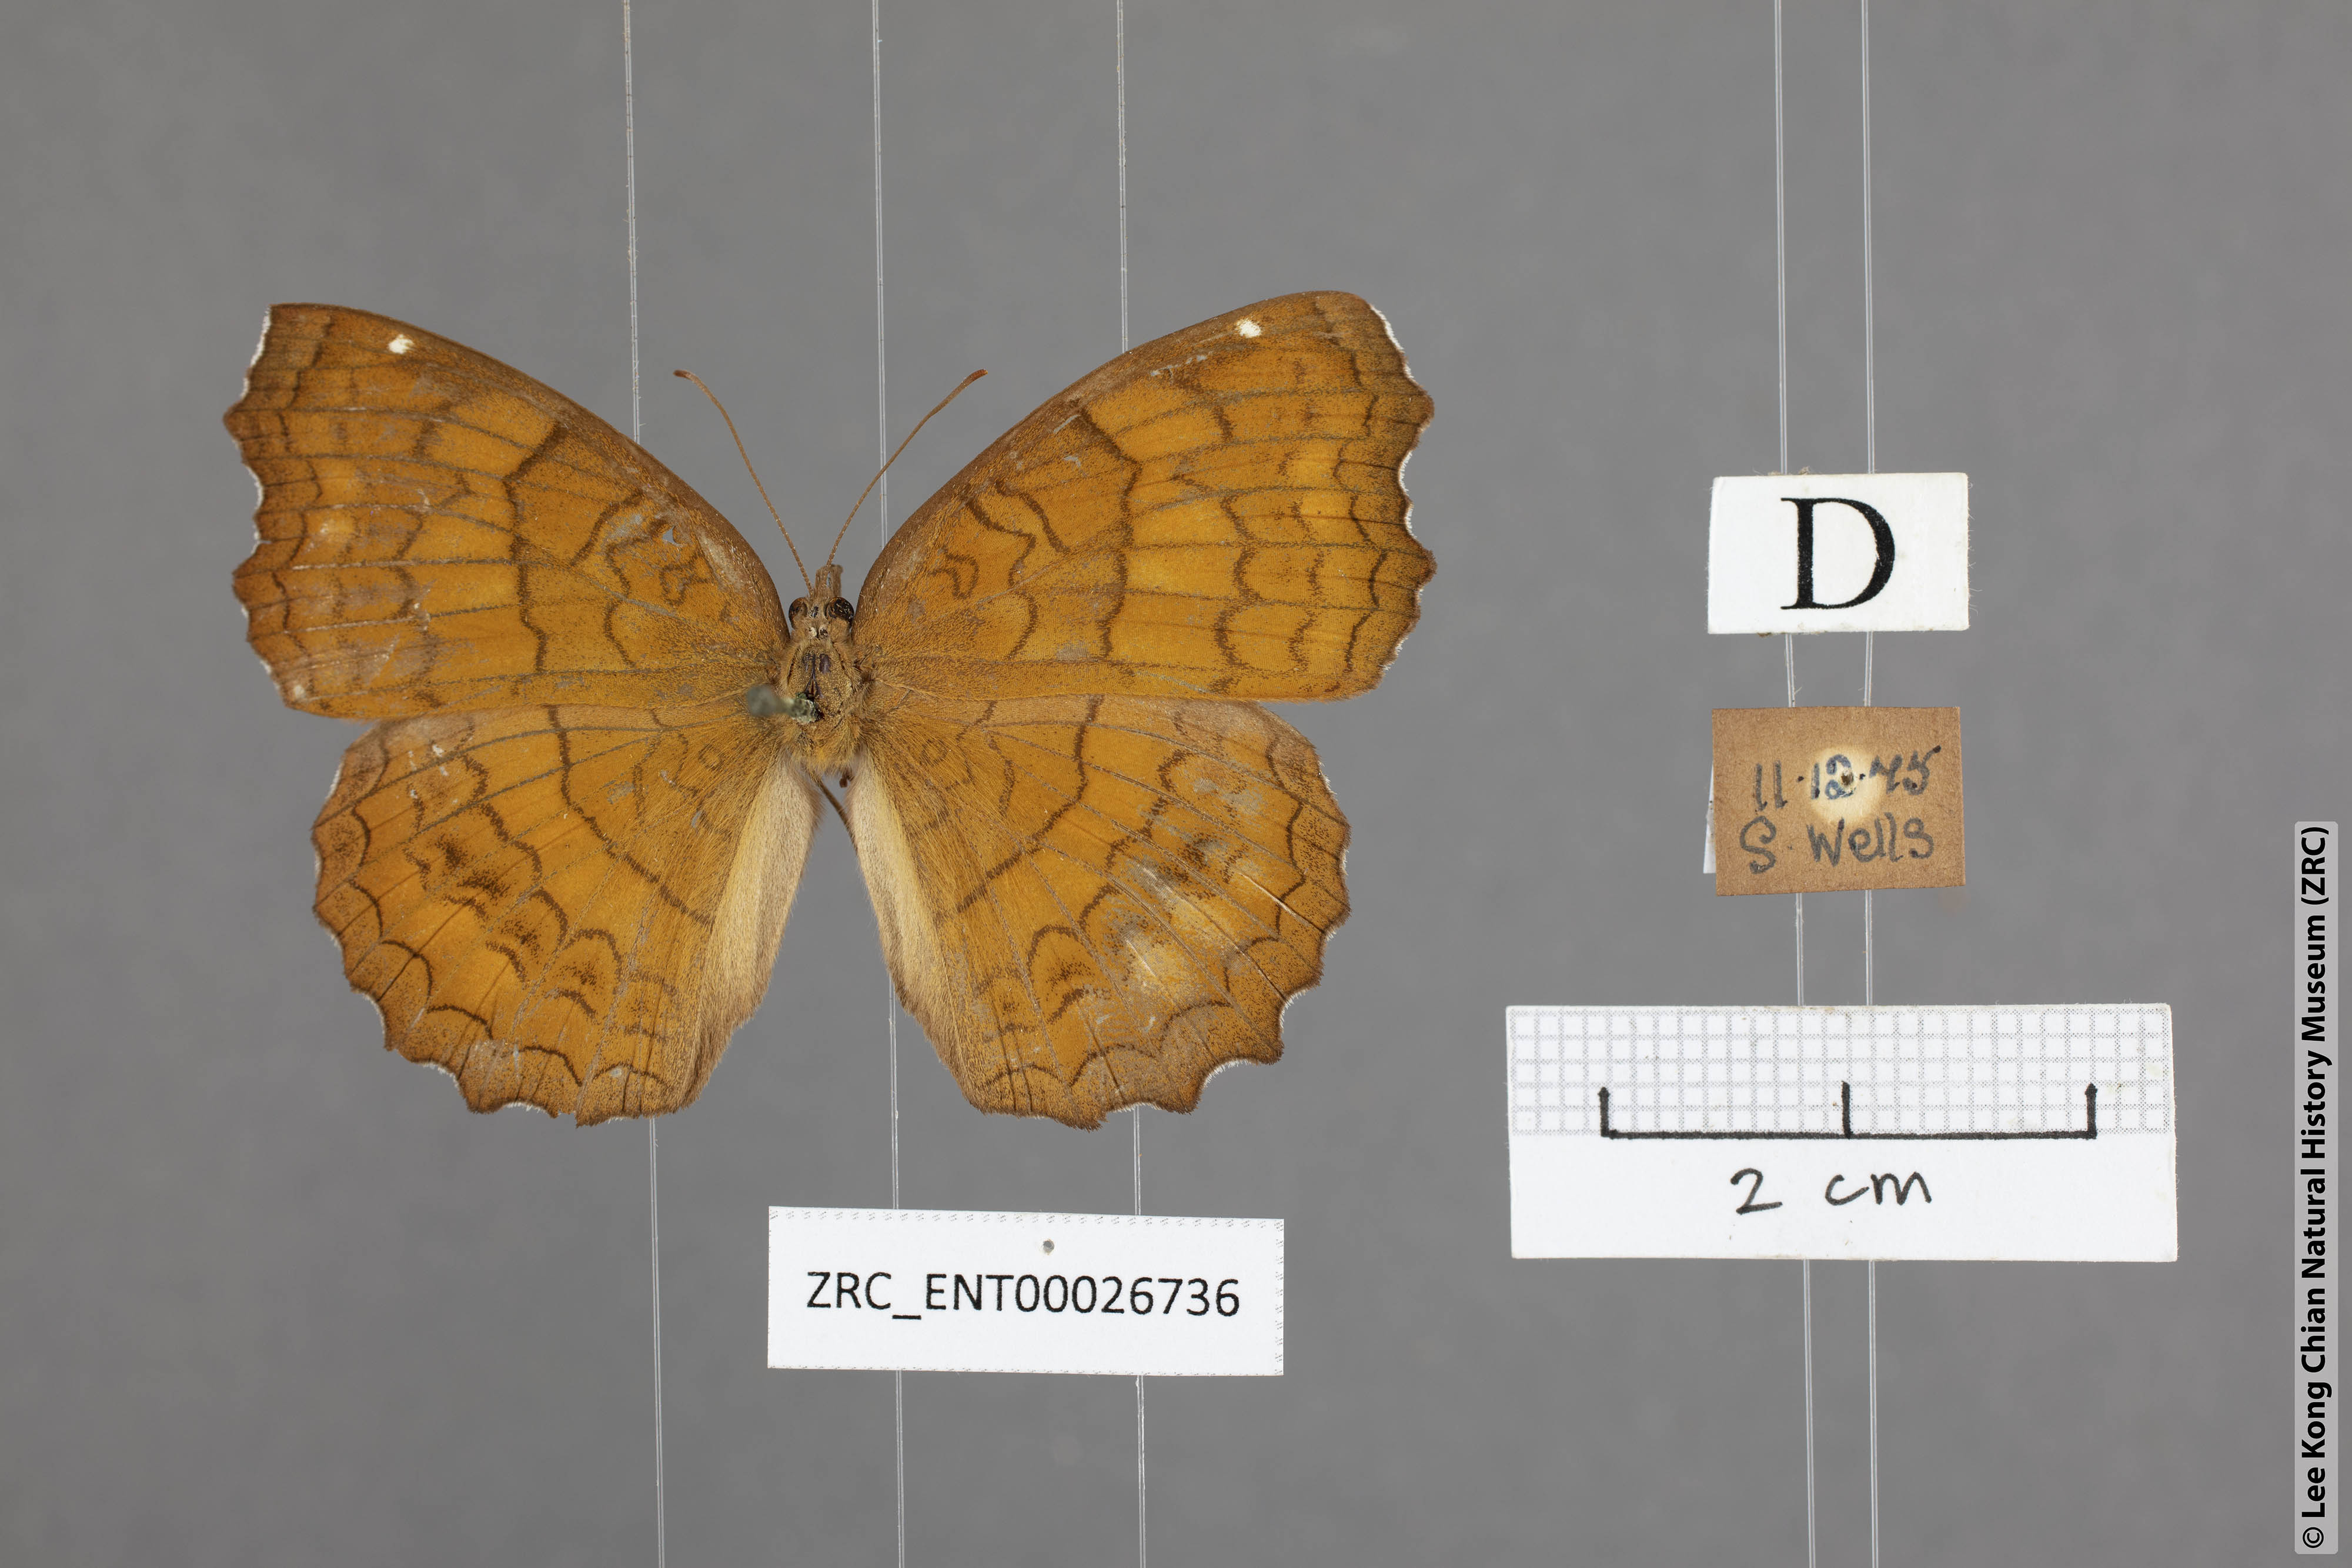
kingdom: Animalia
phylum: Arthropoda
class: Insecta
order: Lepidoptera
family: Nymphalidae
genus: Ariadne
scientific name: Ariadne ariadne
